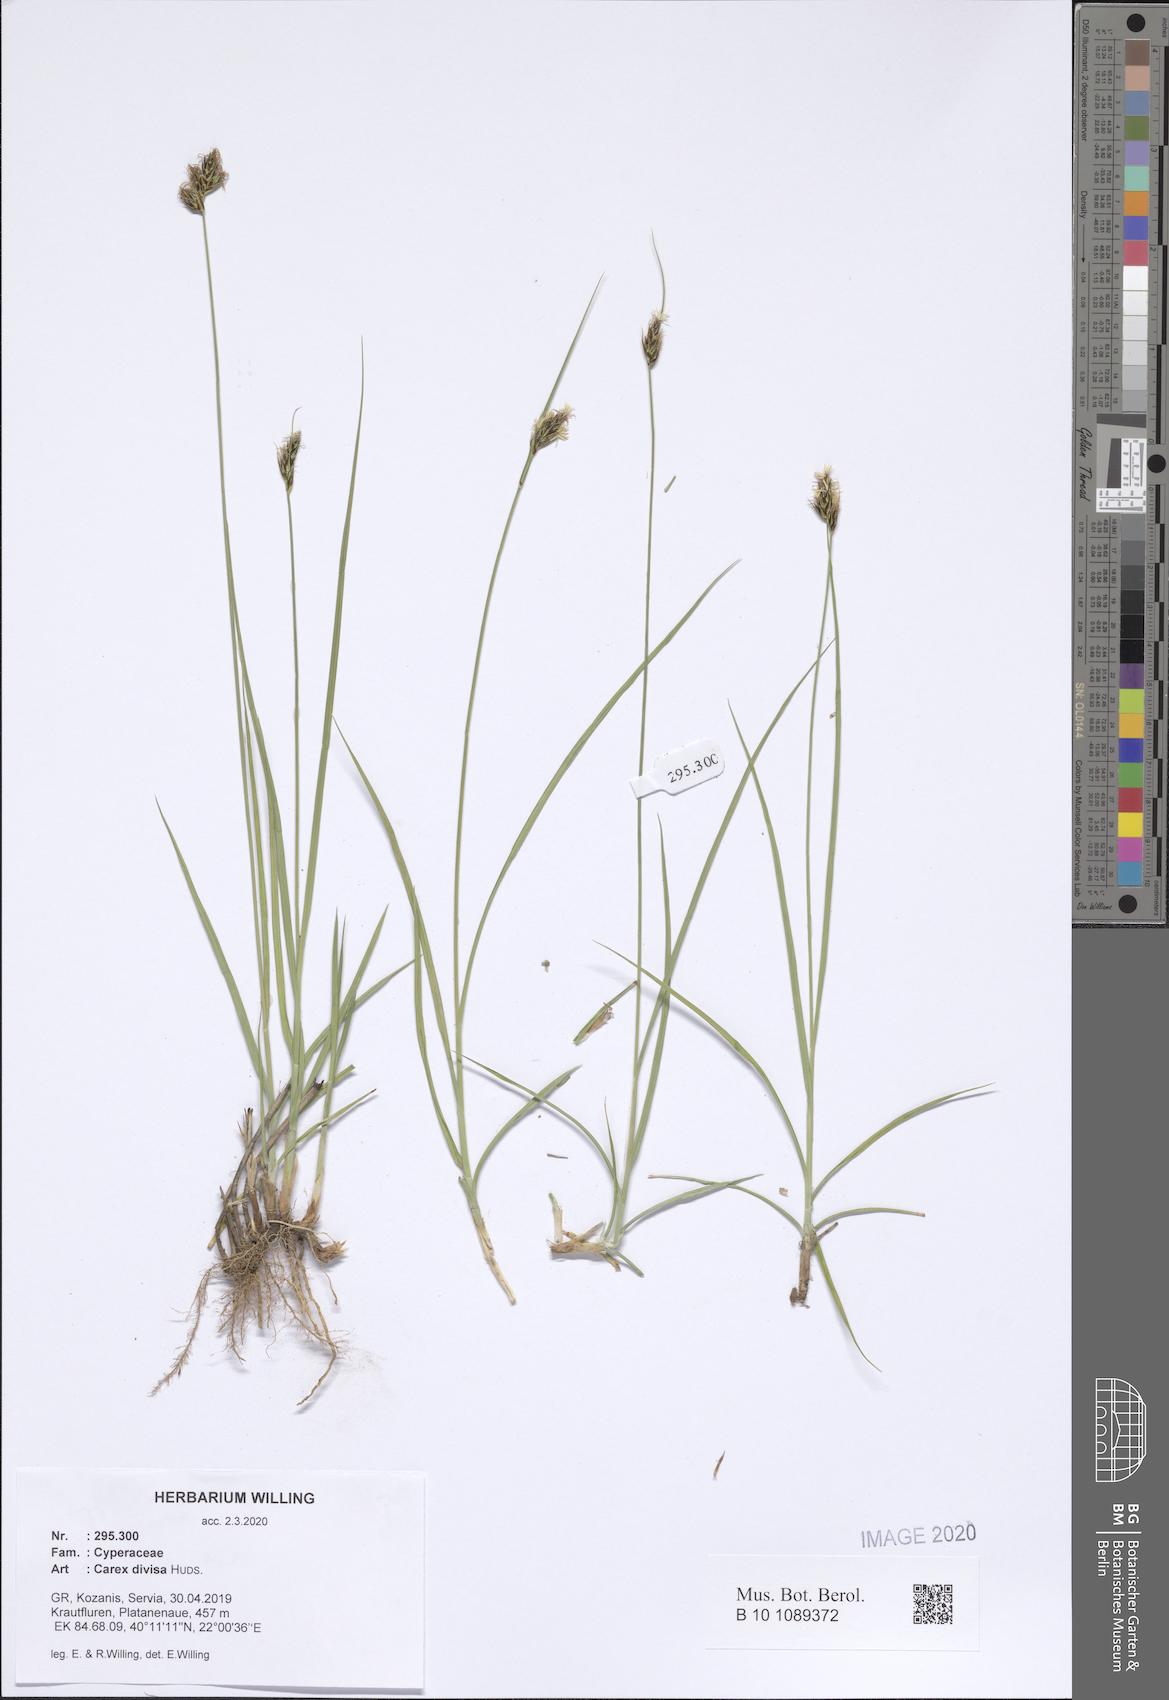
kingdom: Plantae
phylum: Tracheophyta
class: Liliopsida
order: Poales
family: Cyperaceae
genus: Carex
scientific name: Carex divisa
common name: Divided sedge
